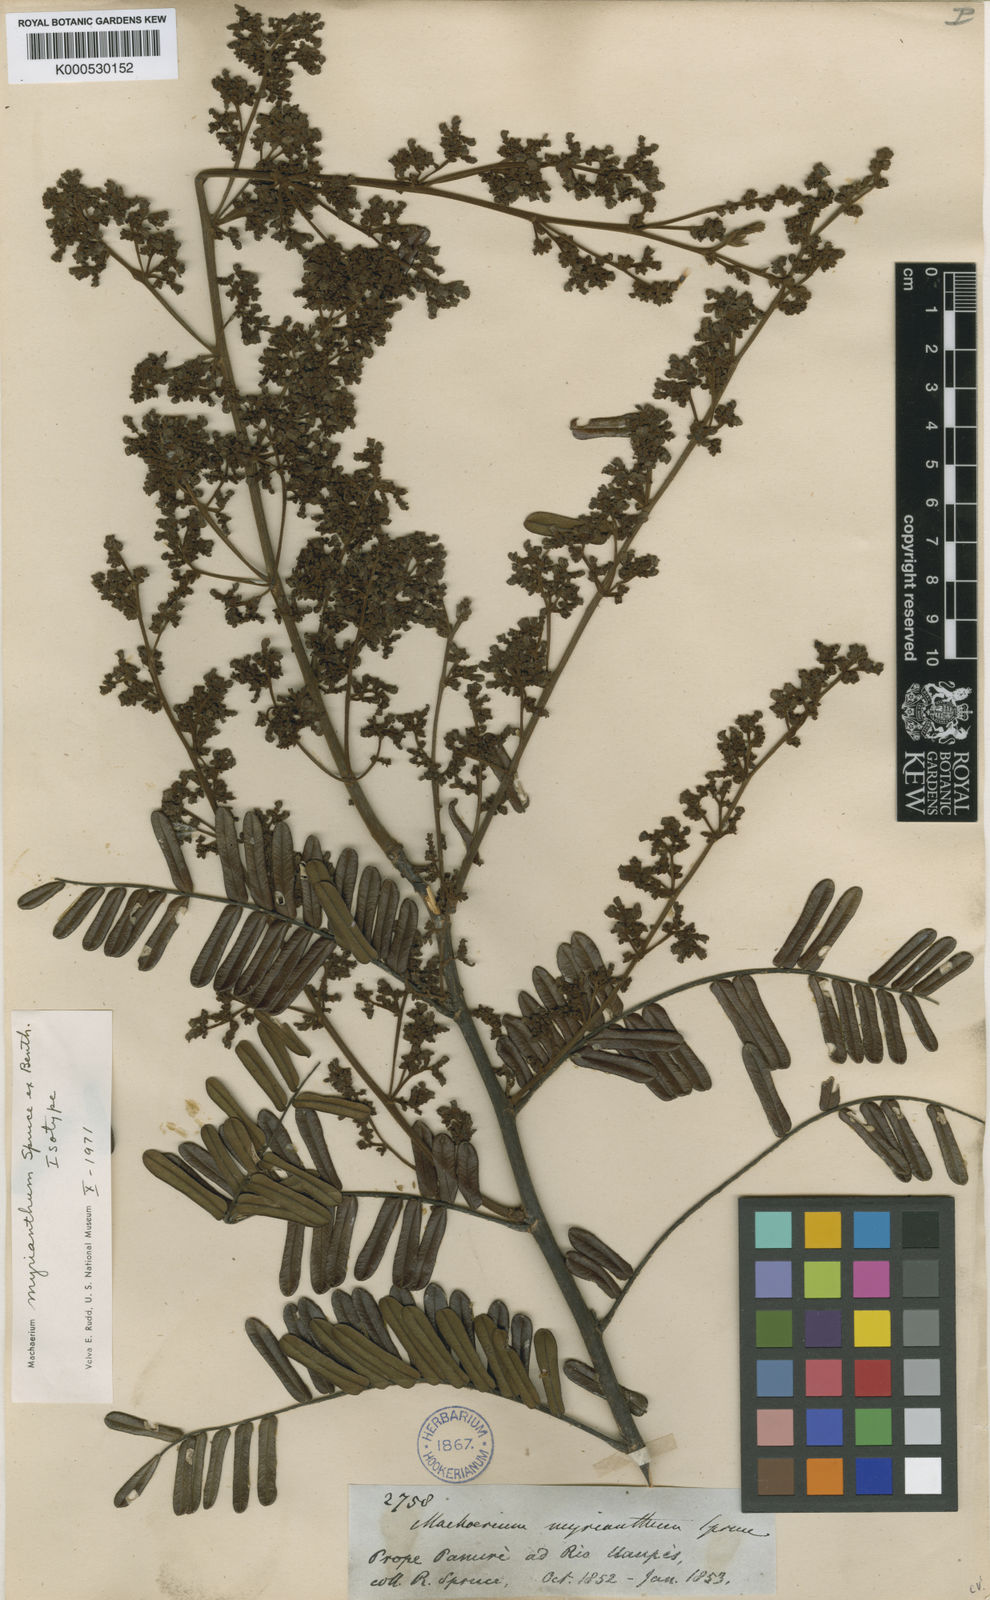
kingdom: Plantae
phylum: Tracheophyta
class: Magnoliopsida
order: Fabales
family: Fabaceae
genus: Machaerium
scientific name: Machaerium myrianthum
